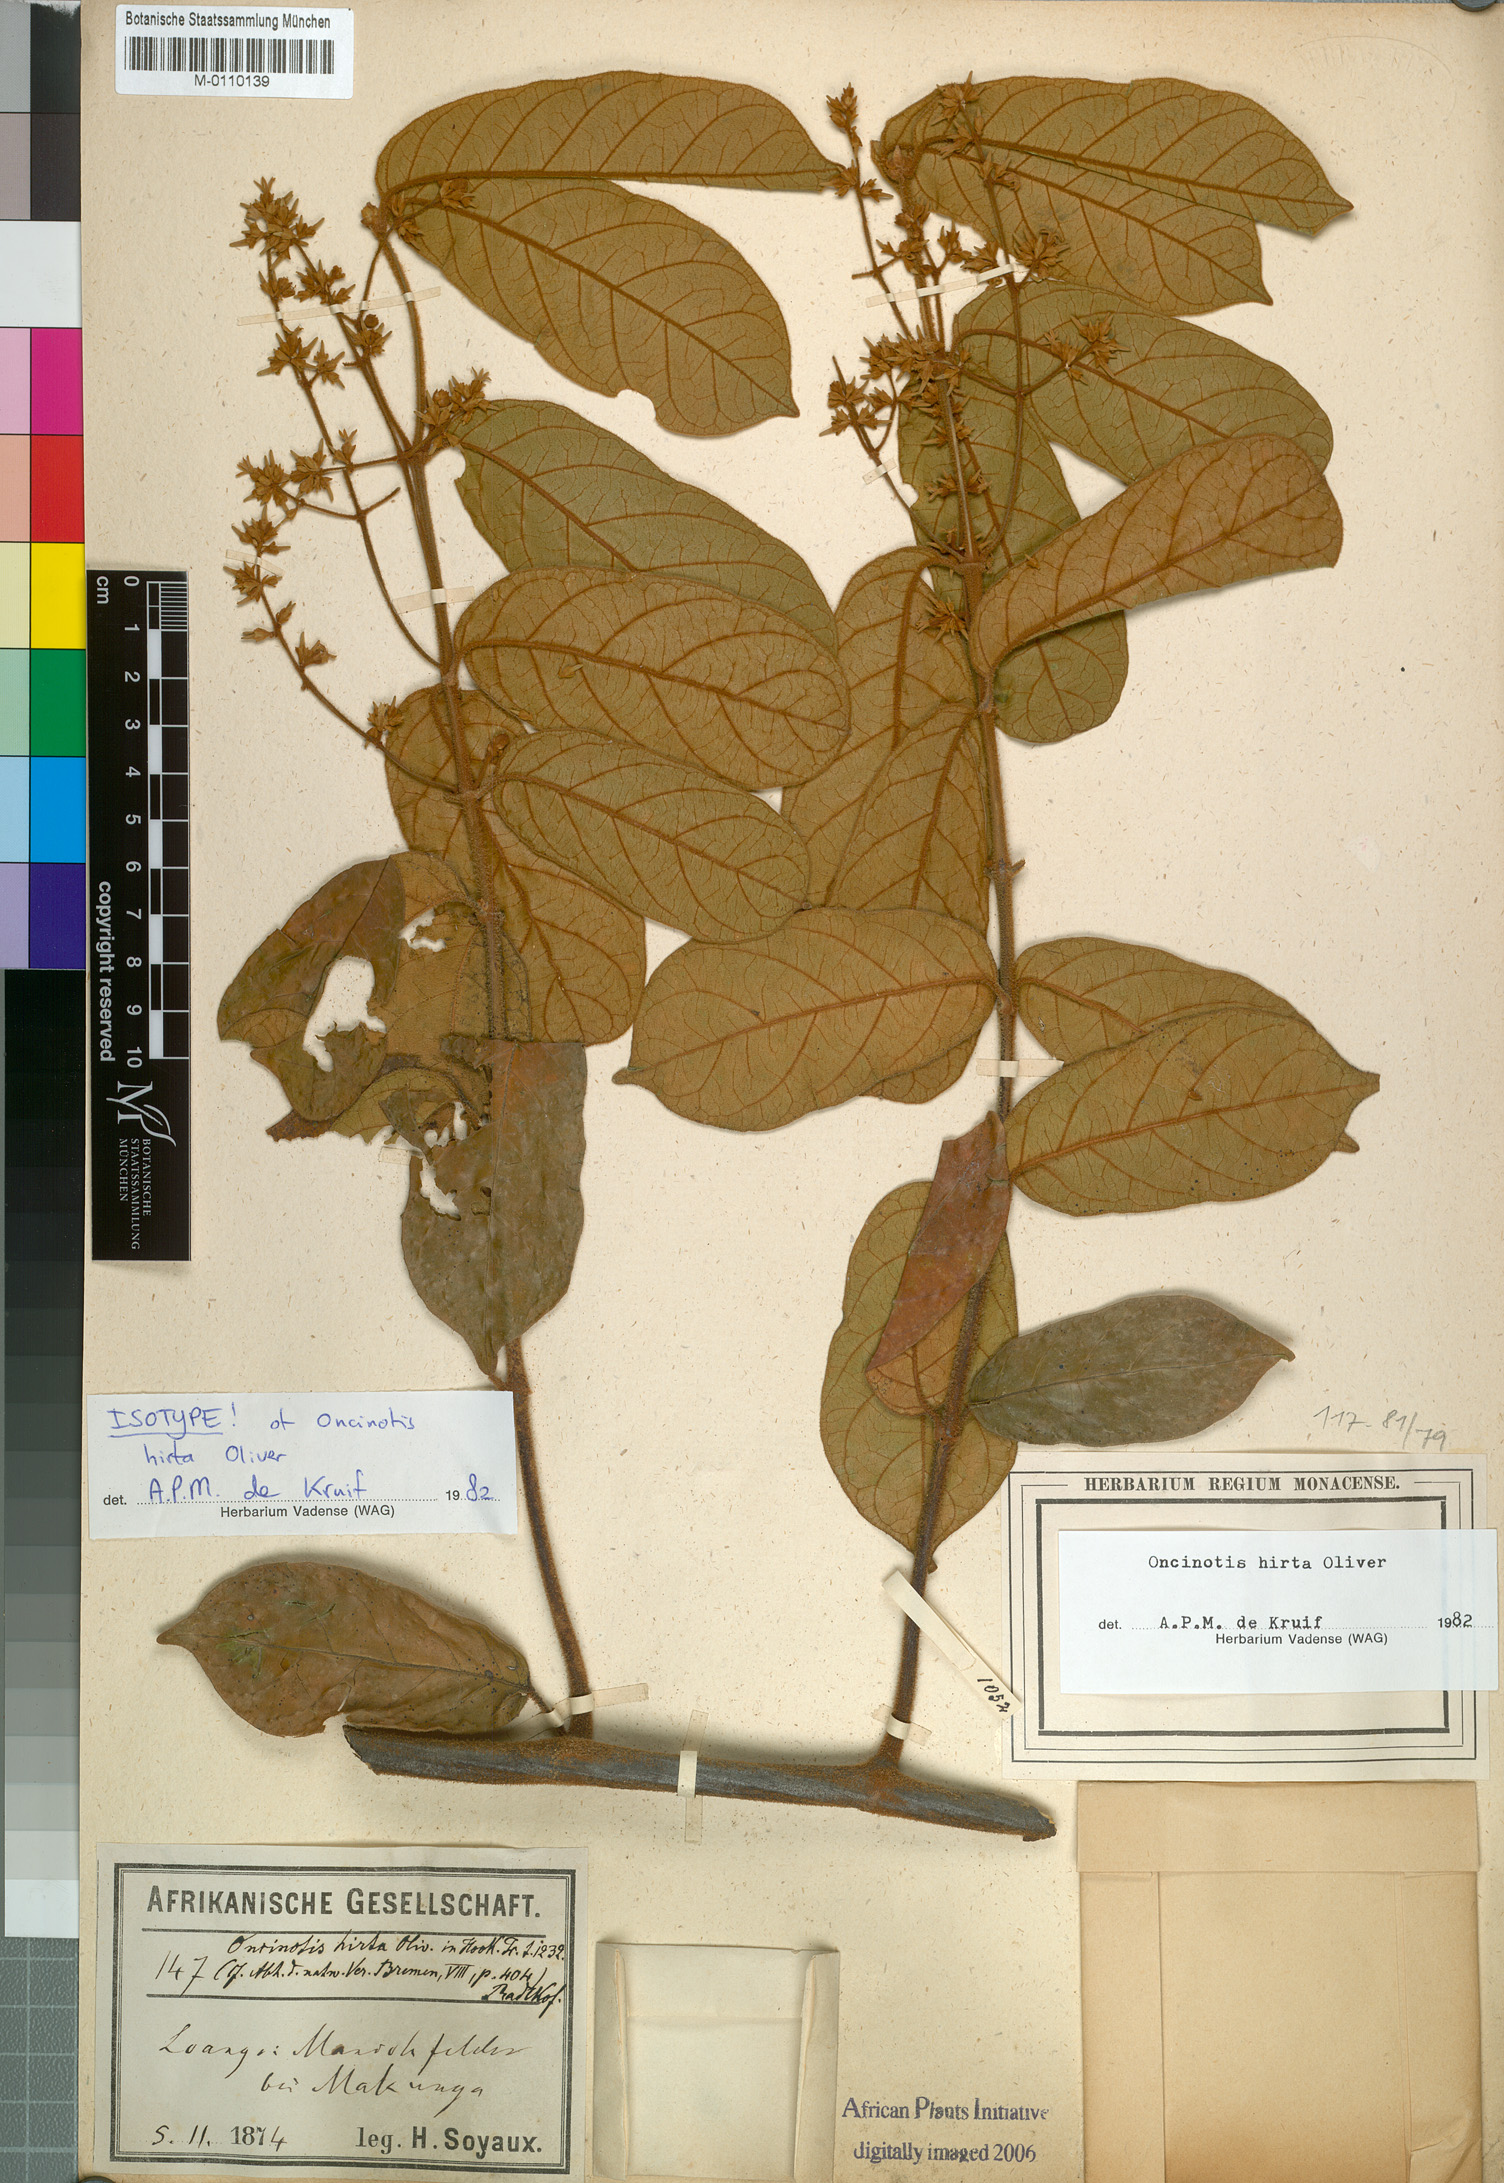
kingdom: Plantae
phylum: Tracheophyta
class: Magnoliopsida
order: Gentianales
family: Apocynaceae
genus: Oncinotis
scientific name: Oncinotis hirta
